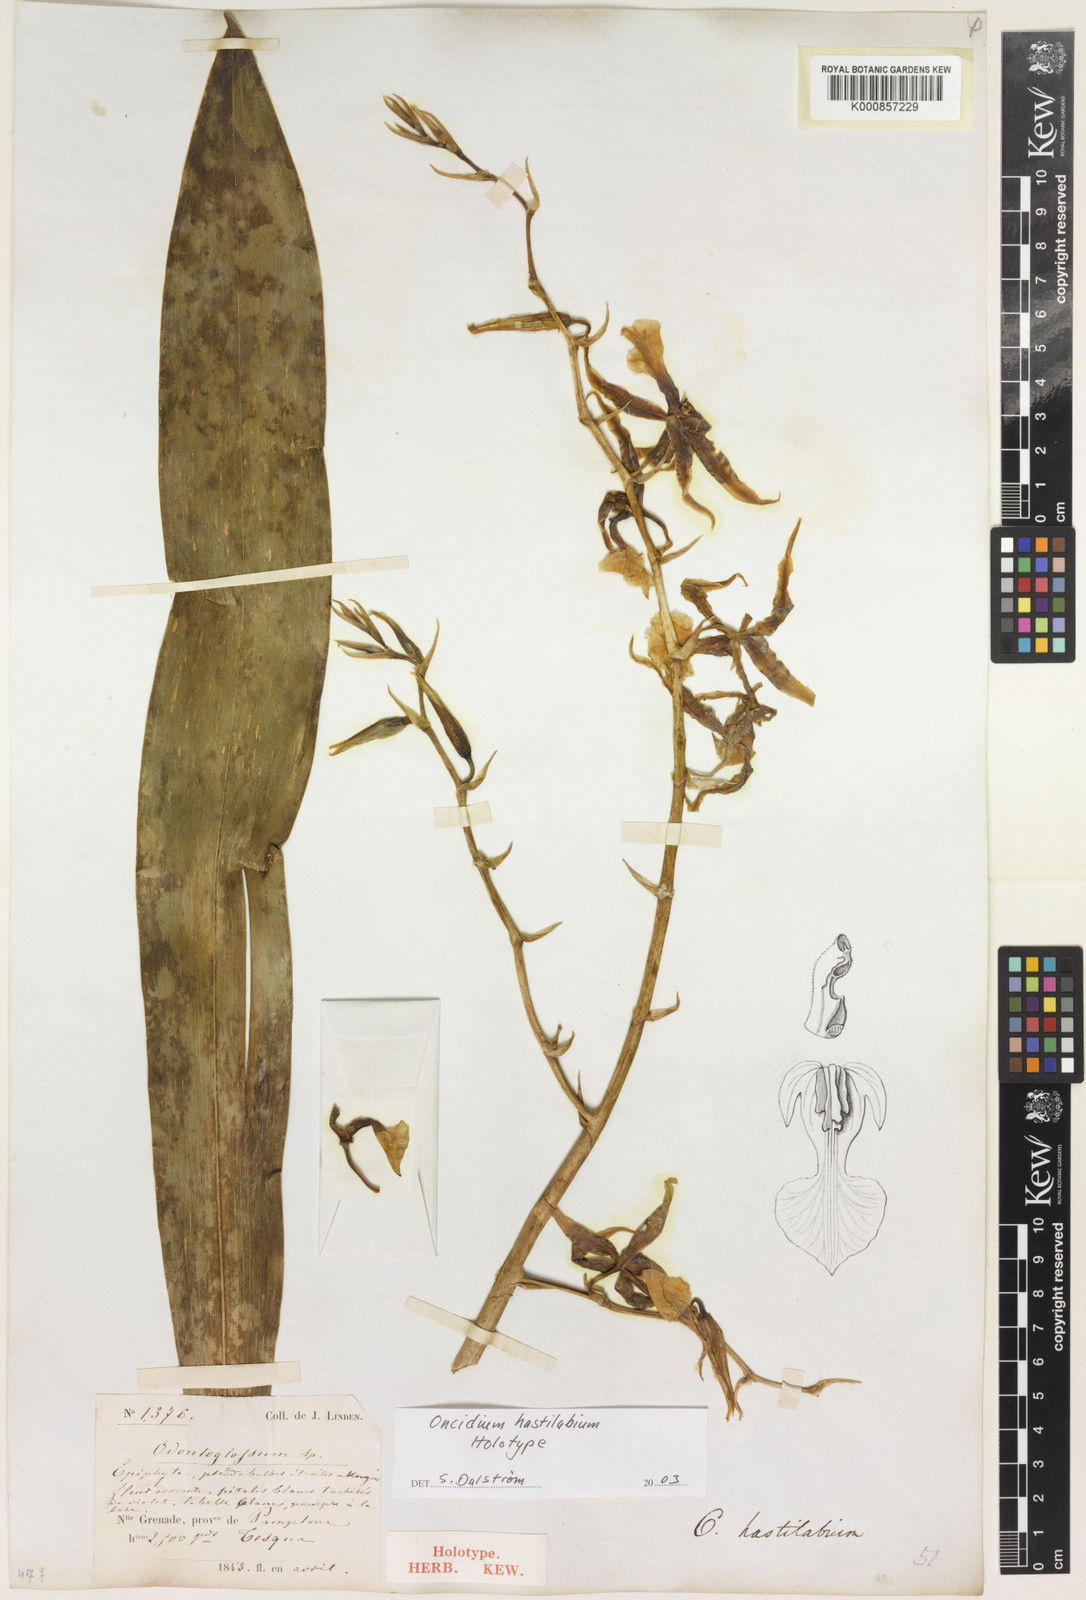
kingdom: Plantae
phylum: Tracheophyta
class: Liliopsida
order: Asparagales
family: Orchidaceae
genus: Oncidium
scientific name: Oncidium hastilabium
